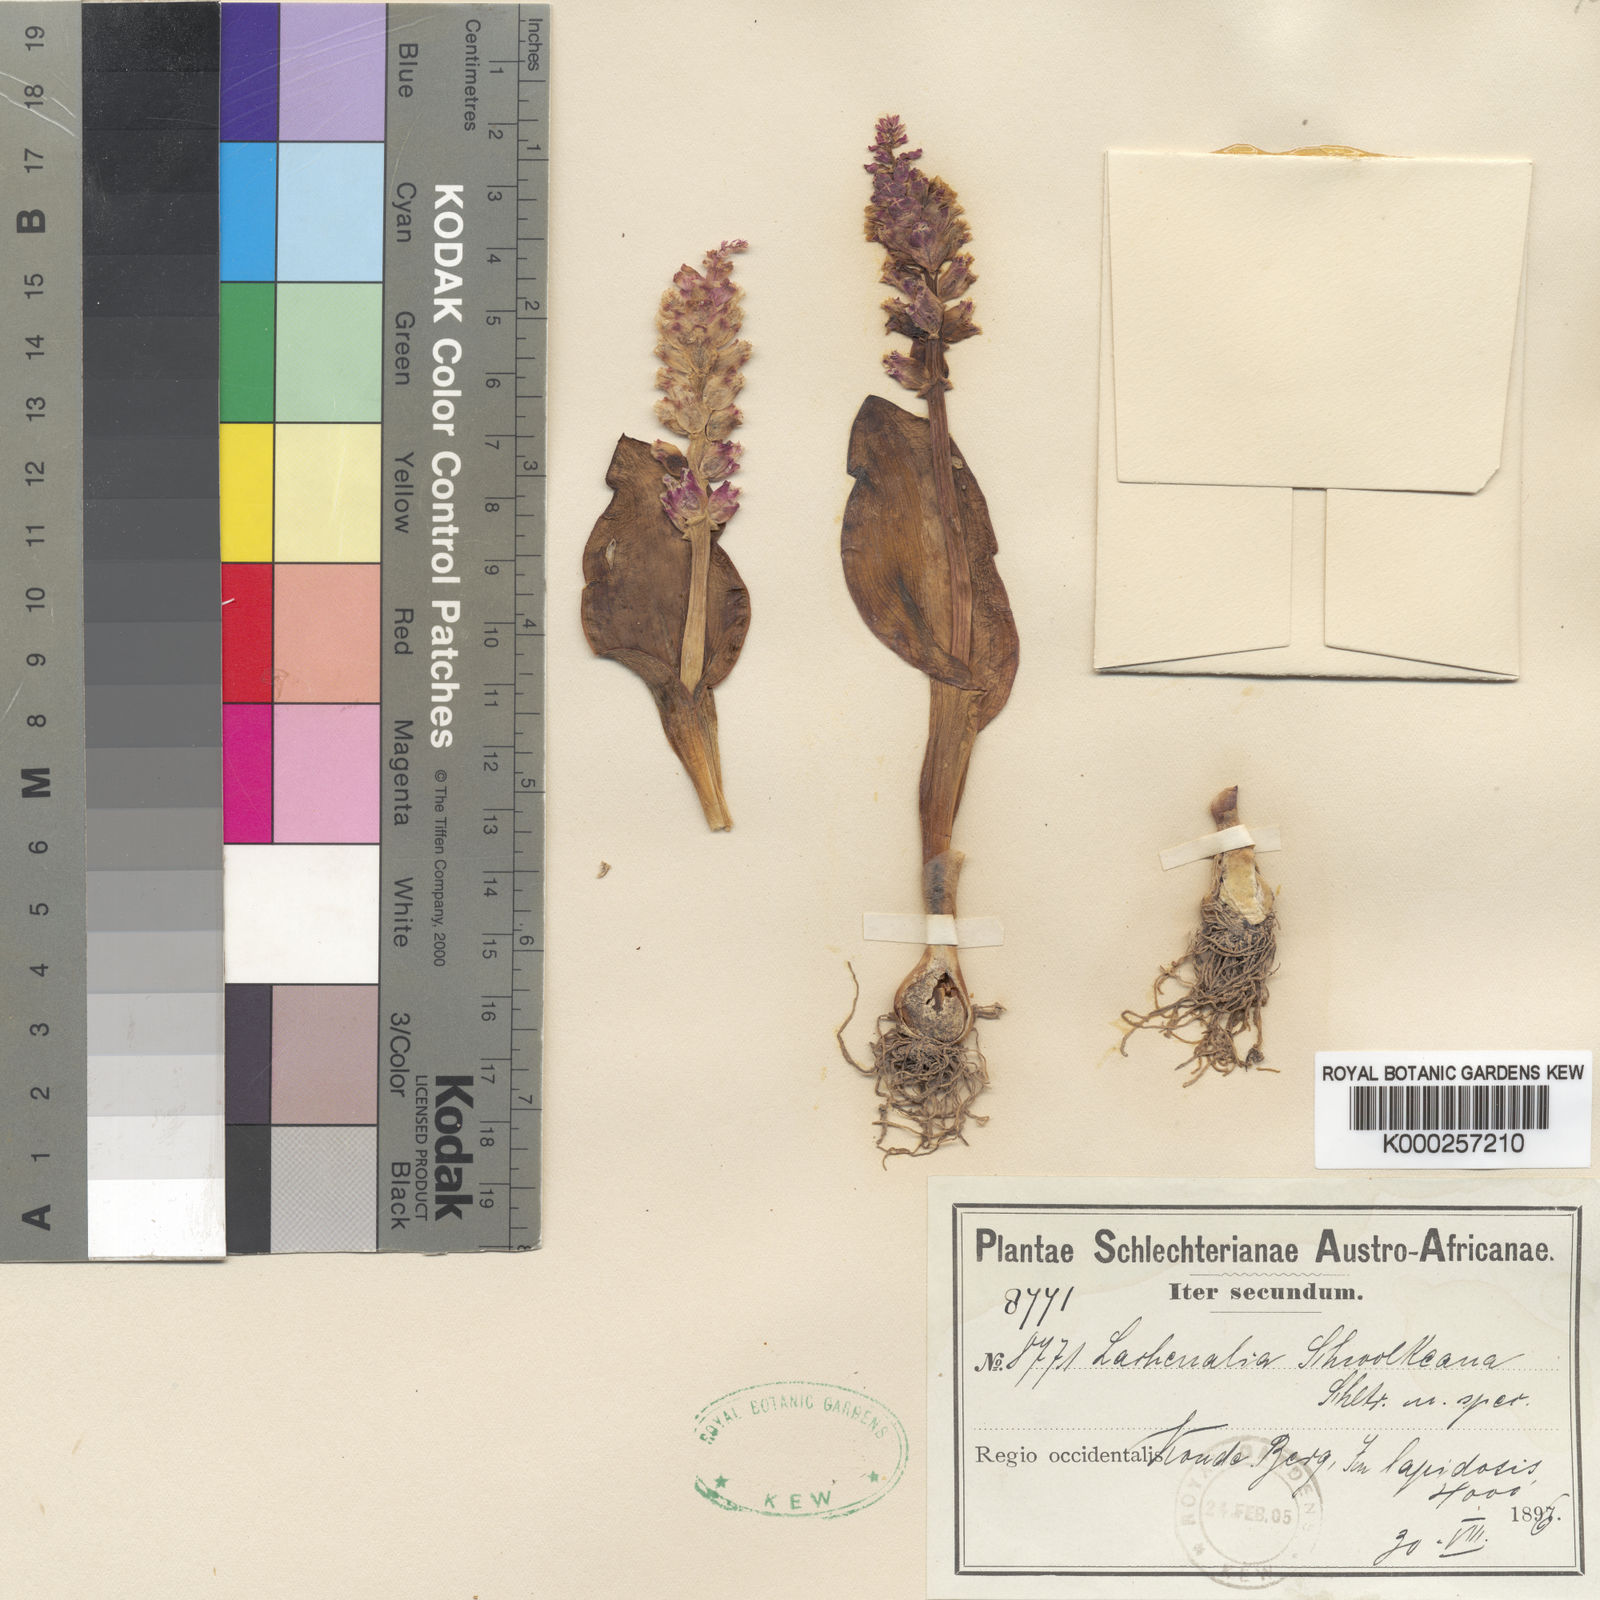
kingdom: Plantae
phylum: Tracheophyta
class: Liliopsida
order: Asparagales
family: Asparagaceae
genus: Lachenalia
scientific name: Lachenalia membranacea
